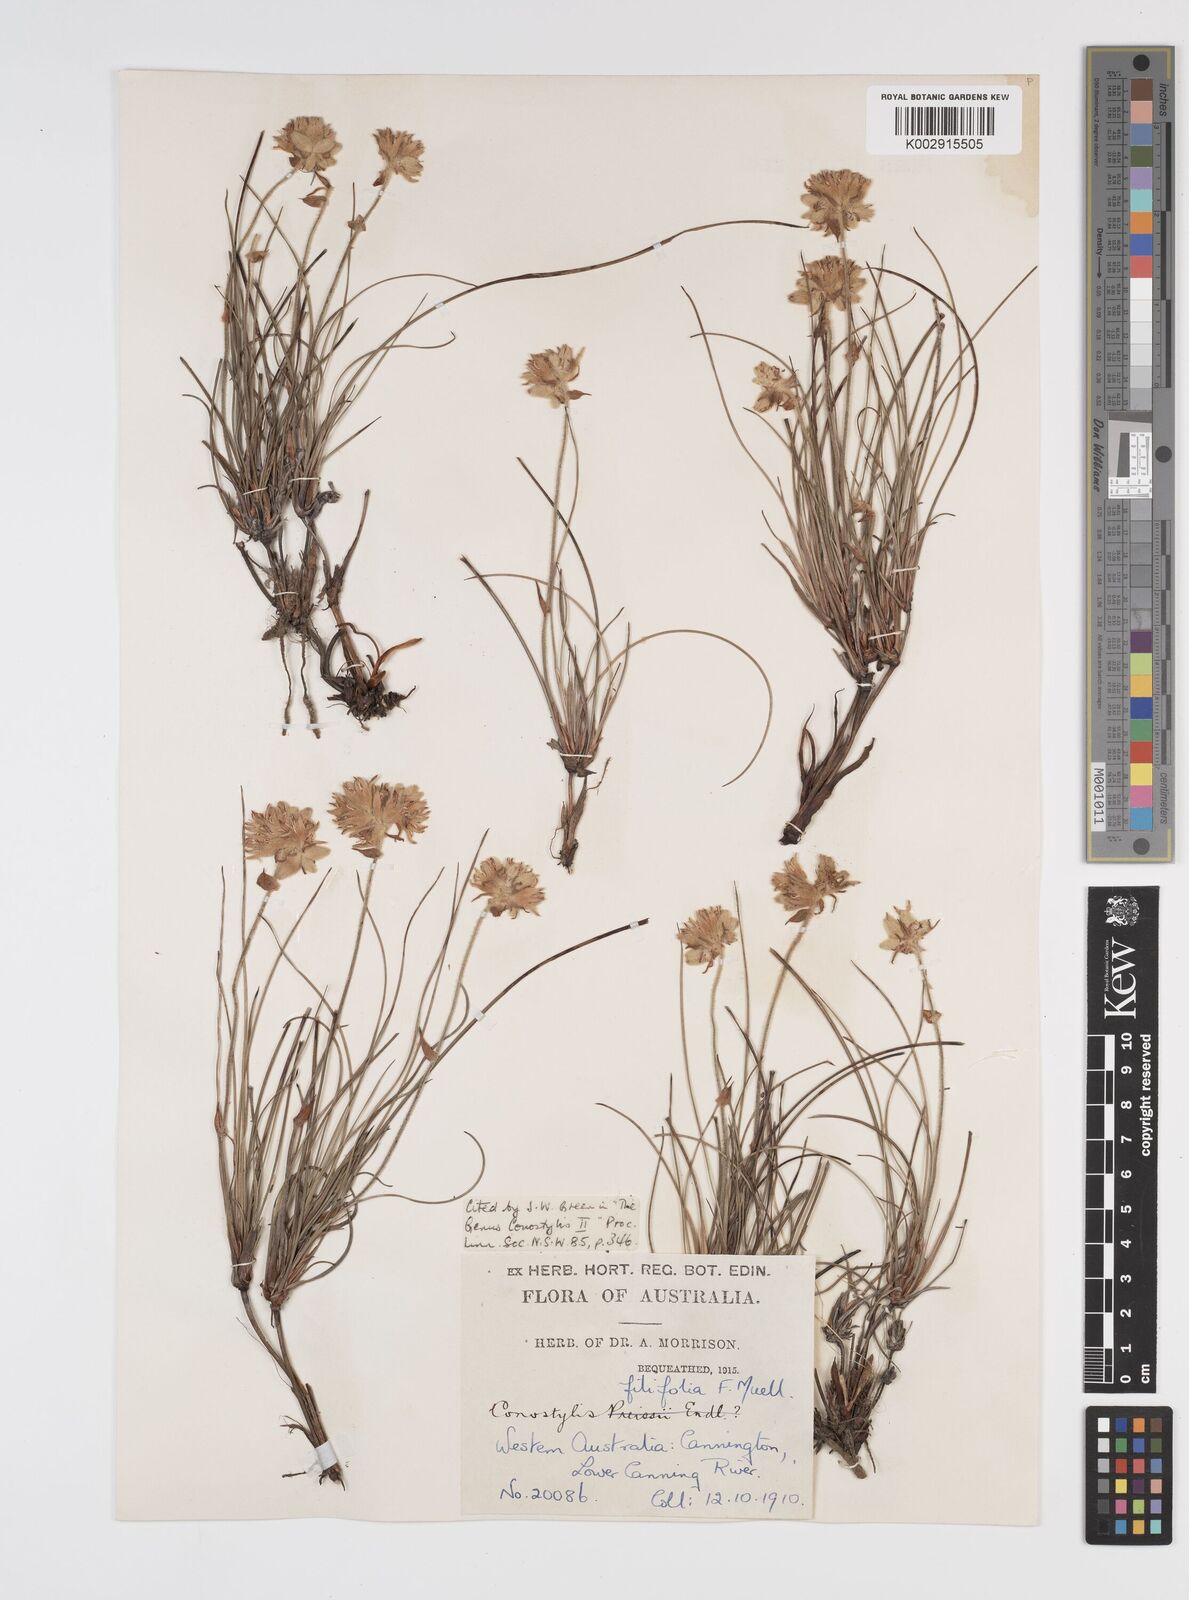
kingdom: Plantae
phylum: Tracheophyta
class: Liliopsida
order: Commelinales
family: Haemodoraceae
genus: Conostylis
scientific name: Conostylis festucacea
